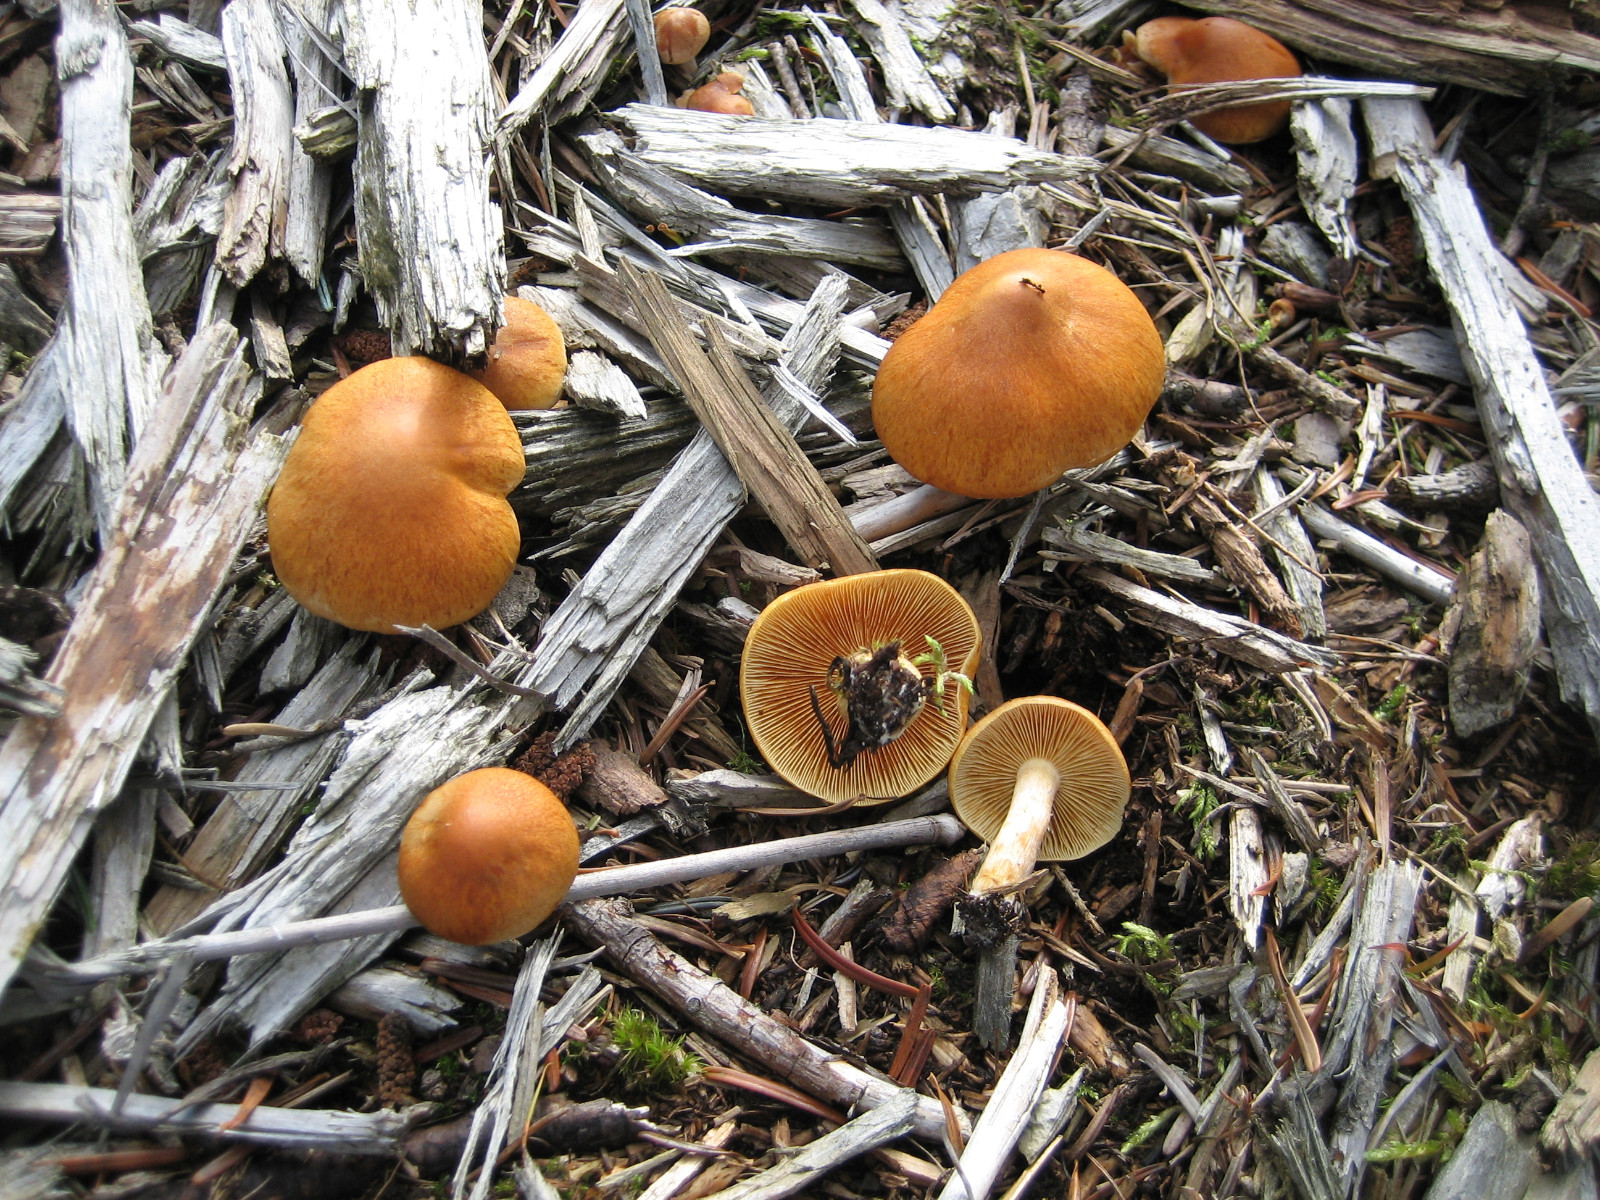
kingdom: Fungi
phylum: Basidiomycota
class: Agaricomycetes
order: Agaricales
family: Hymenogastraceae
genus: Gymnopilus
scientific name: Gymnopilus penetrans
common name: plettet flammehat
